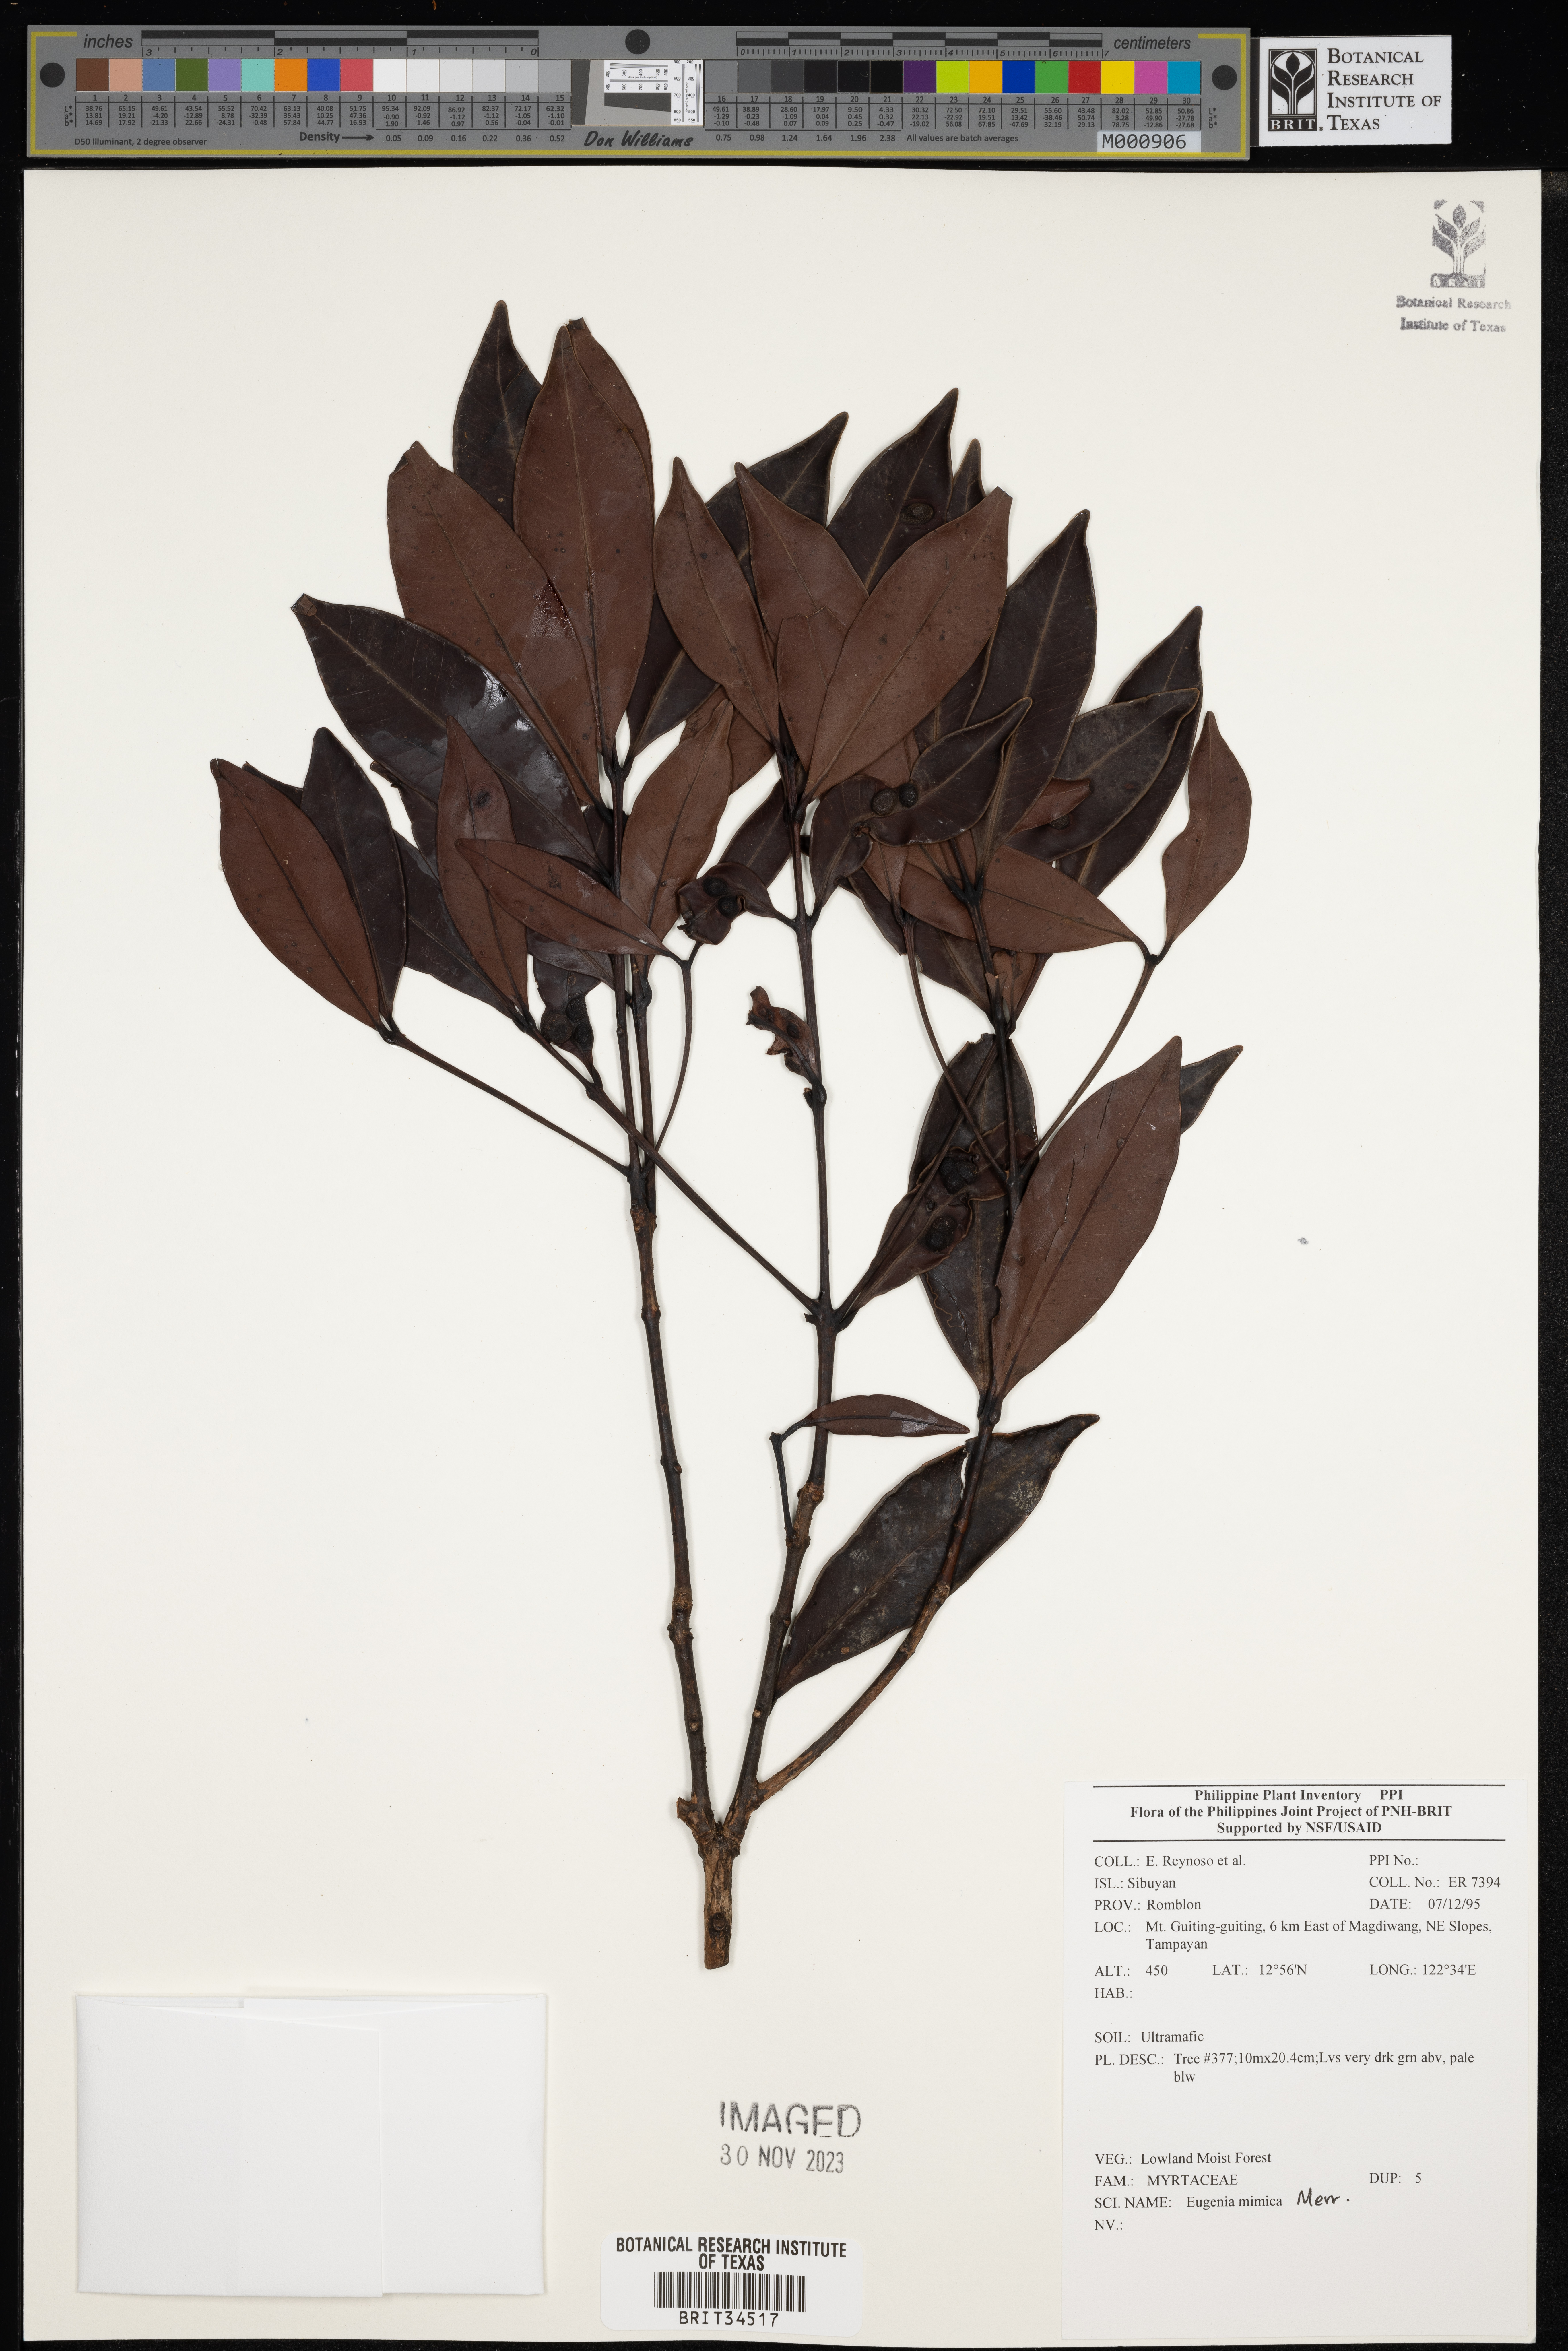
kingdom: Plantae
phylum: Tracheophyta
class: Magnoliopsida
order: Myrtales
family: Myrtaceae
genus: Eugenia
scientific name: Eugenia
